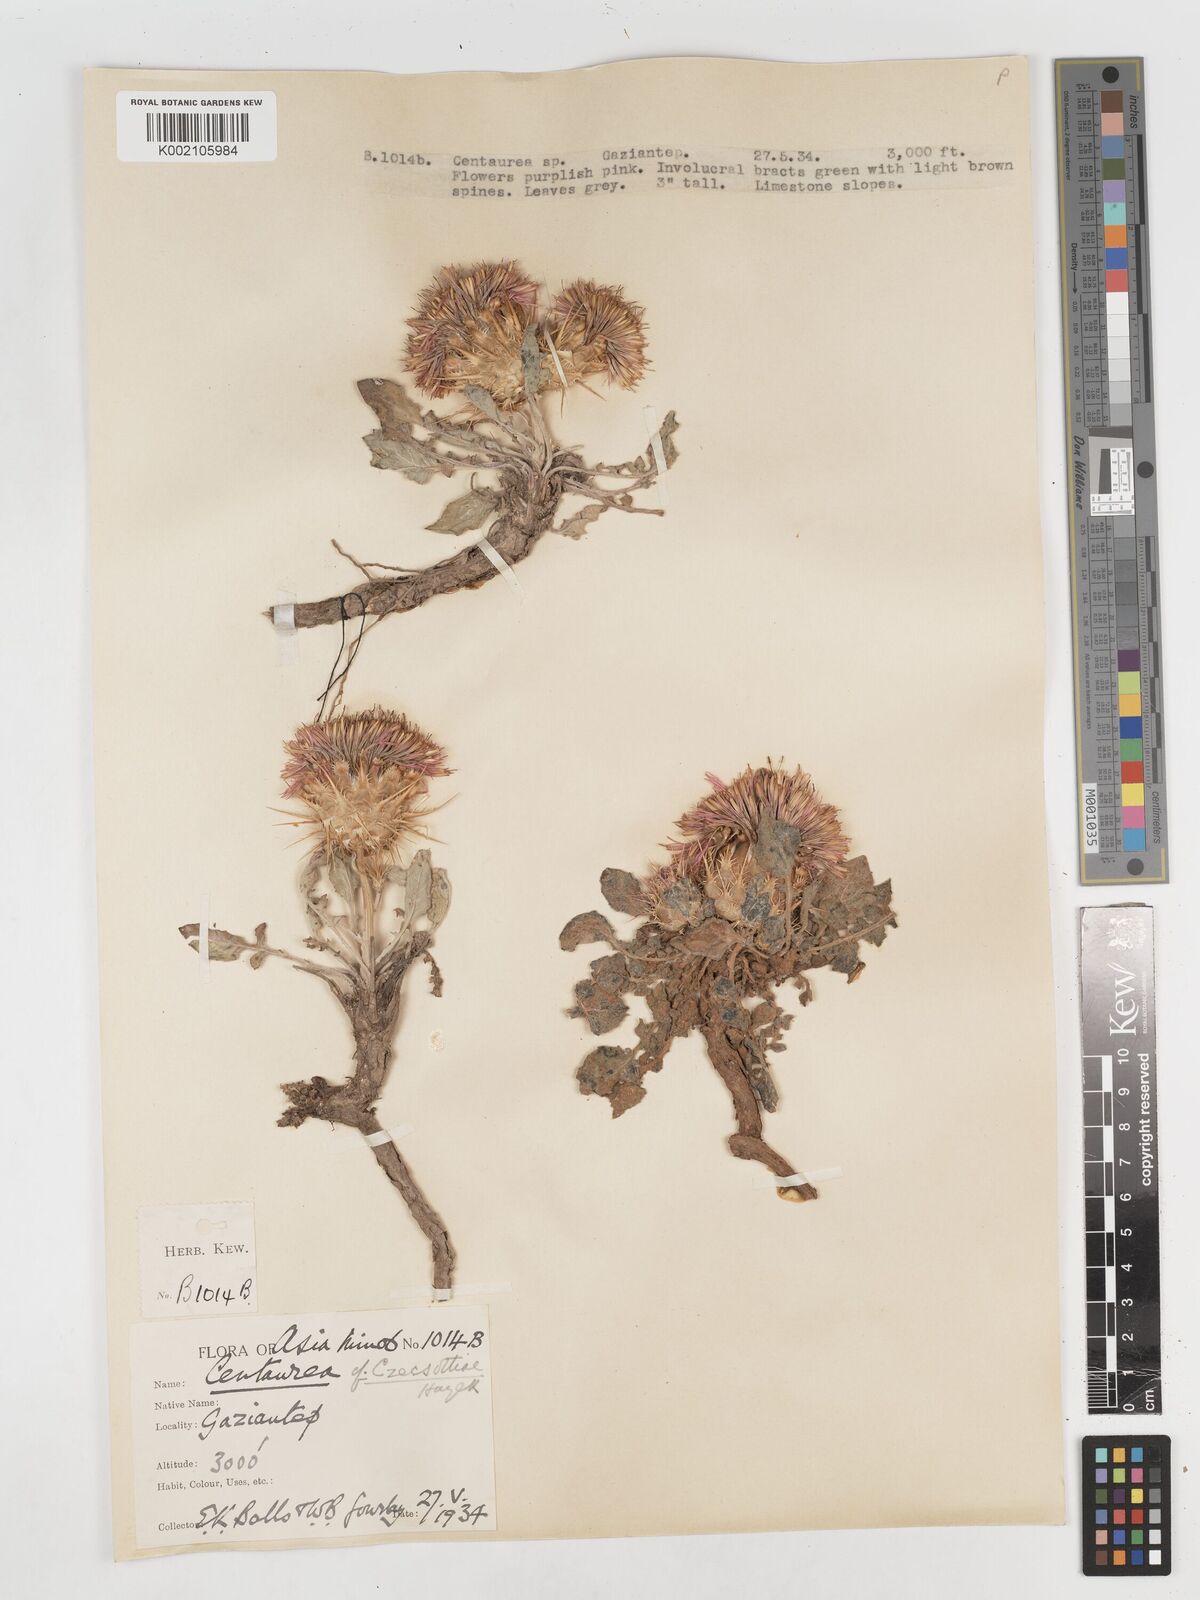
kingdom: Plantae
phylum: Tracheophyta
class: Magnoliopsida
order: Asterales
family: Asteraceae
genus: Centaurea
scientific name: Centaurea
